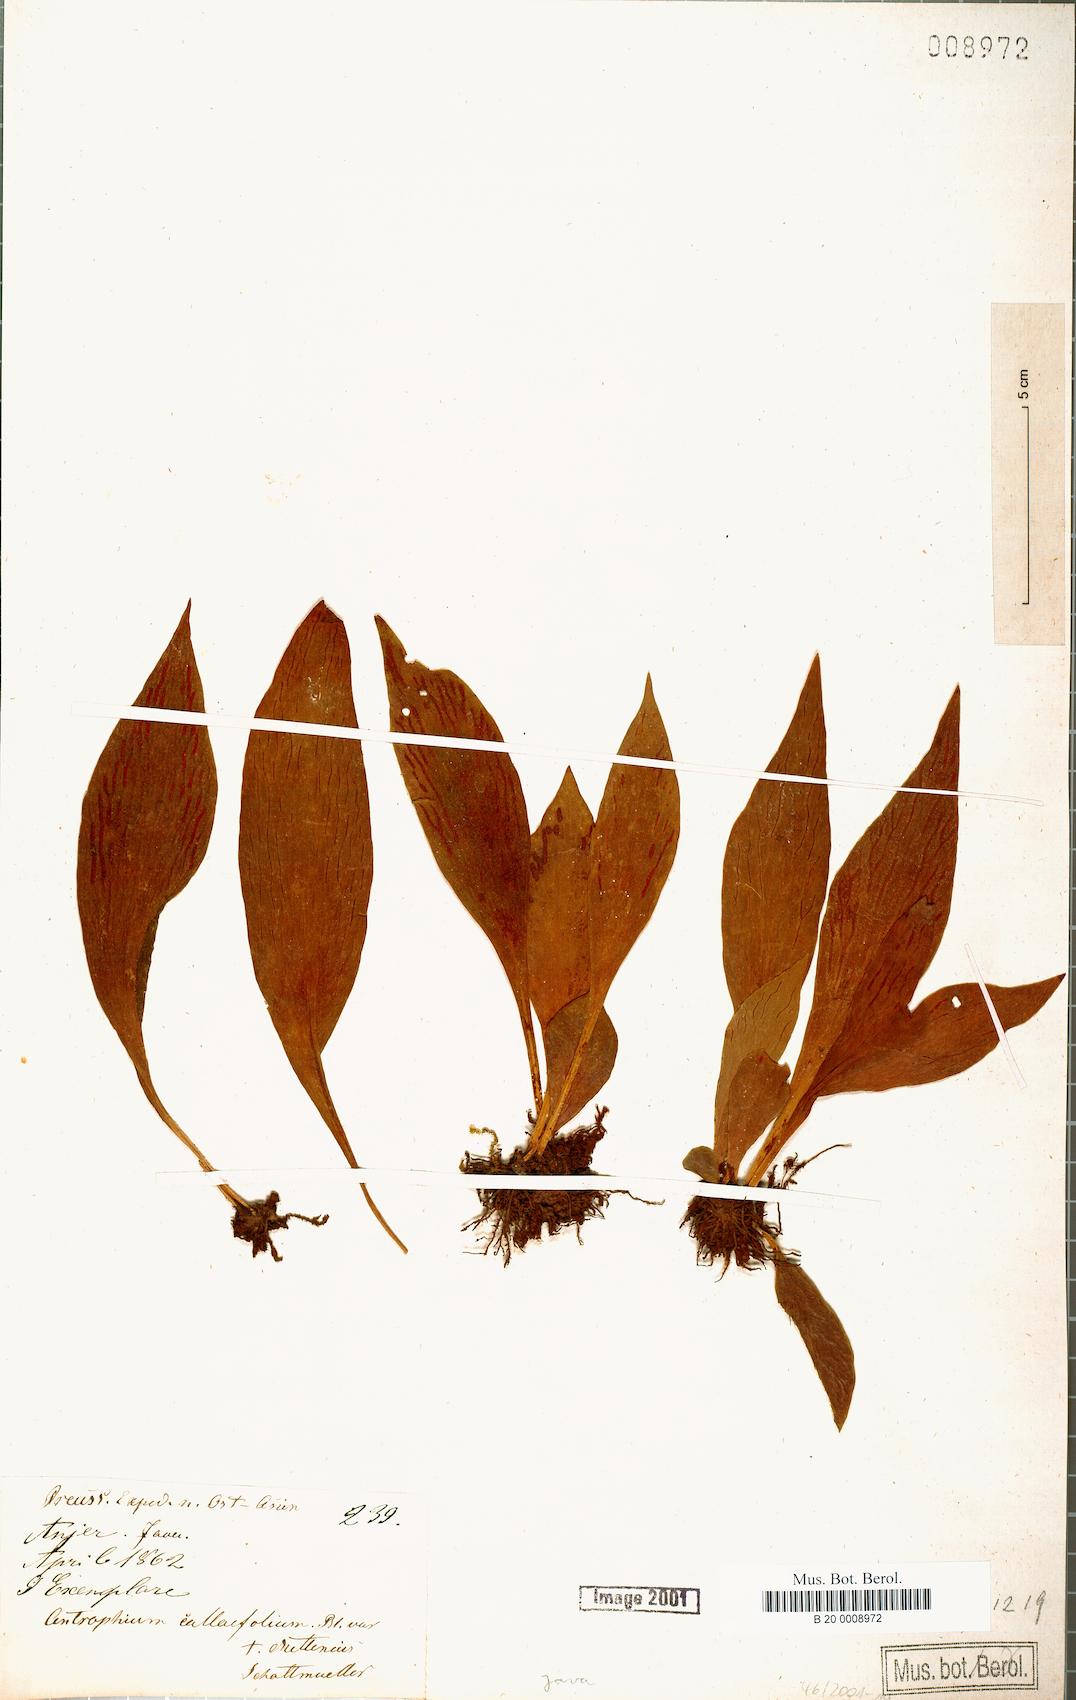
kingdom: Plantae
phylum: Tracheophyta
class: Polypodiopsida
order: Polypodiales
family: Pteridaceae
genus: Antrophyum
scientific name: Antrophyum callifolium
